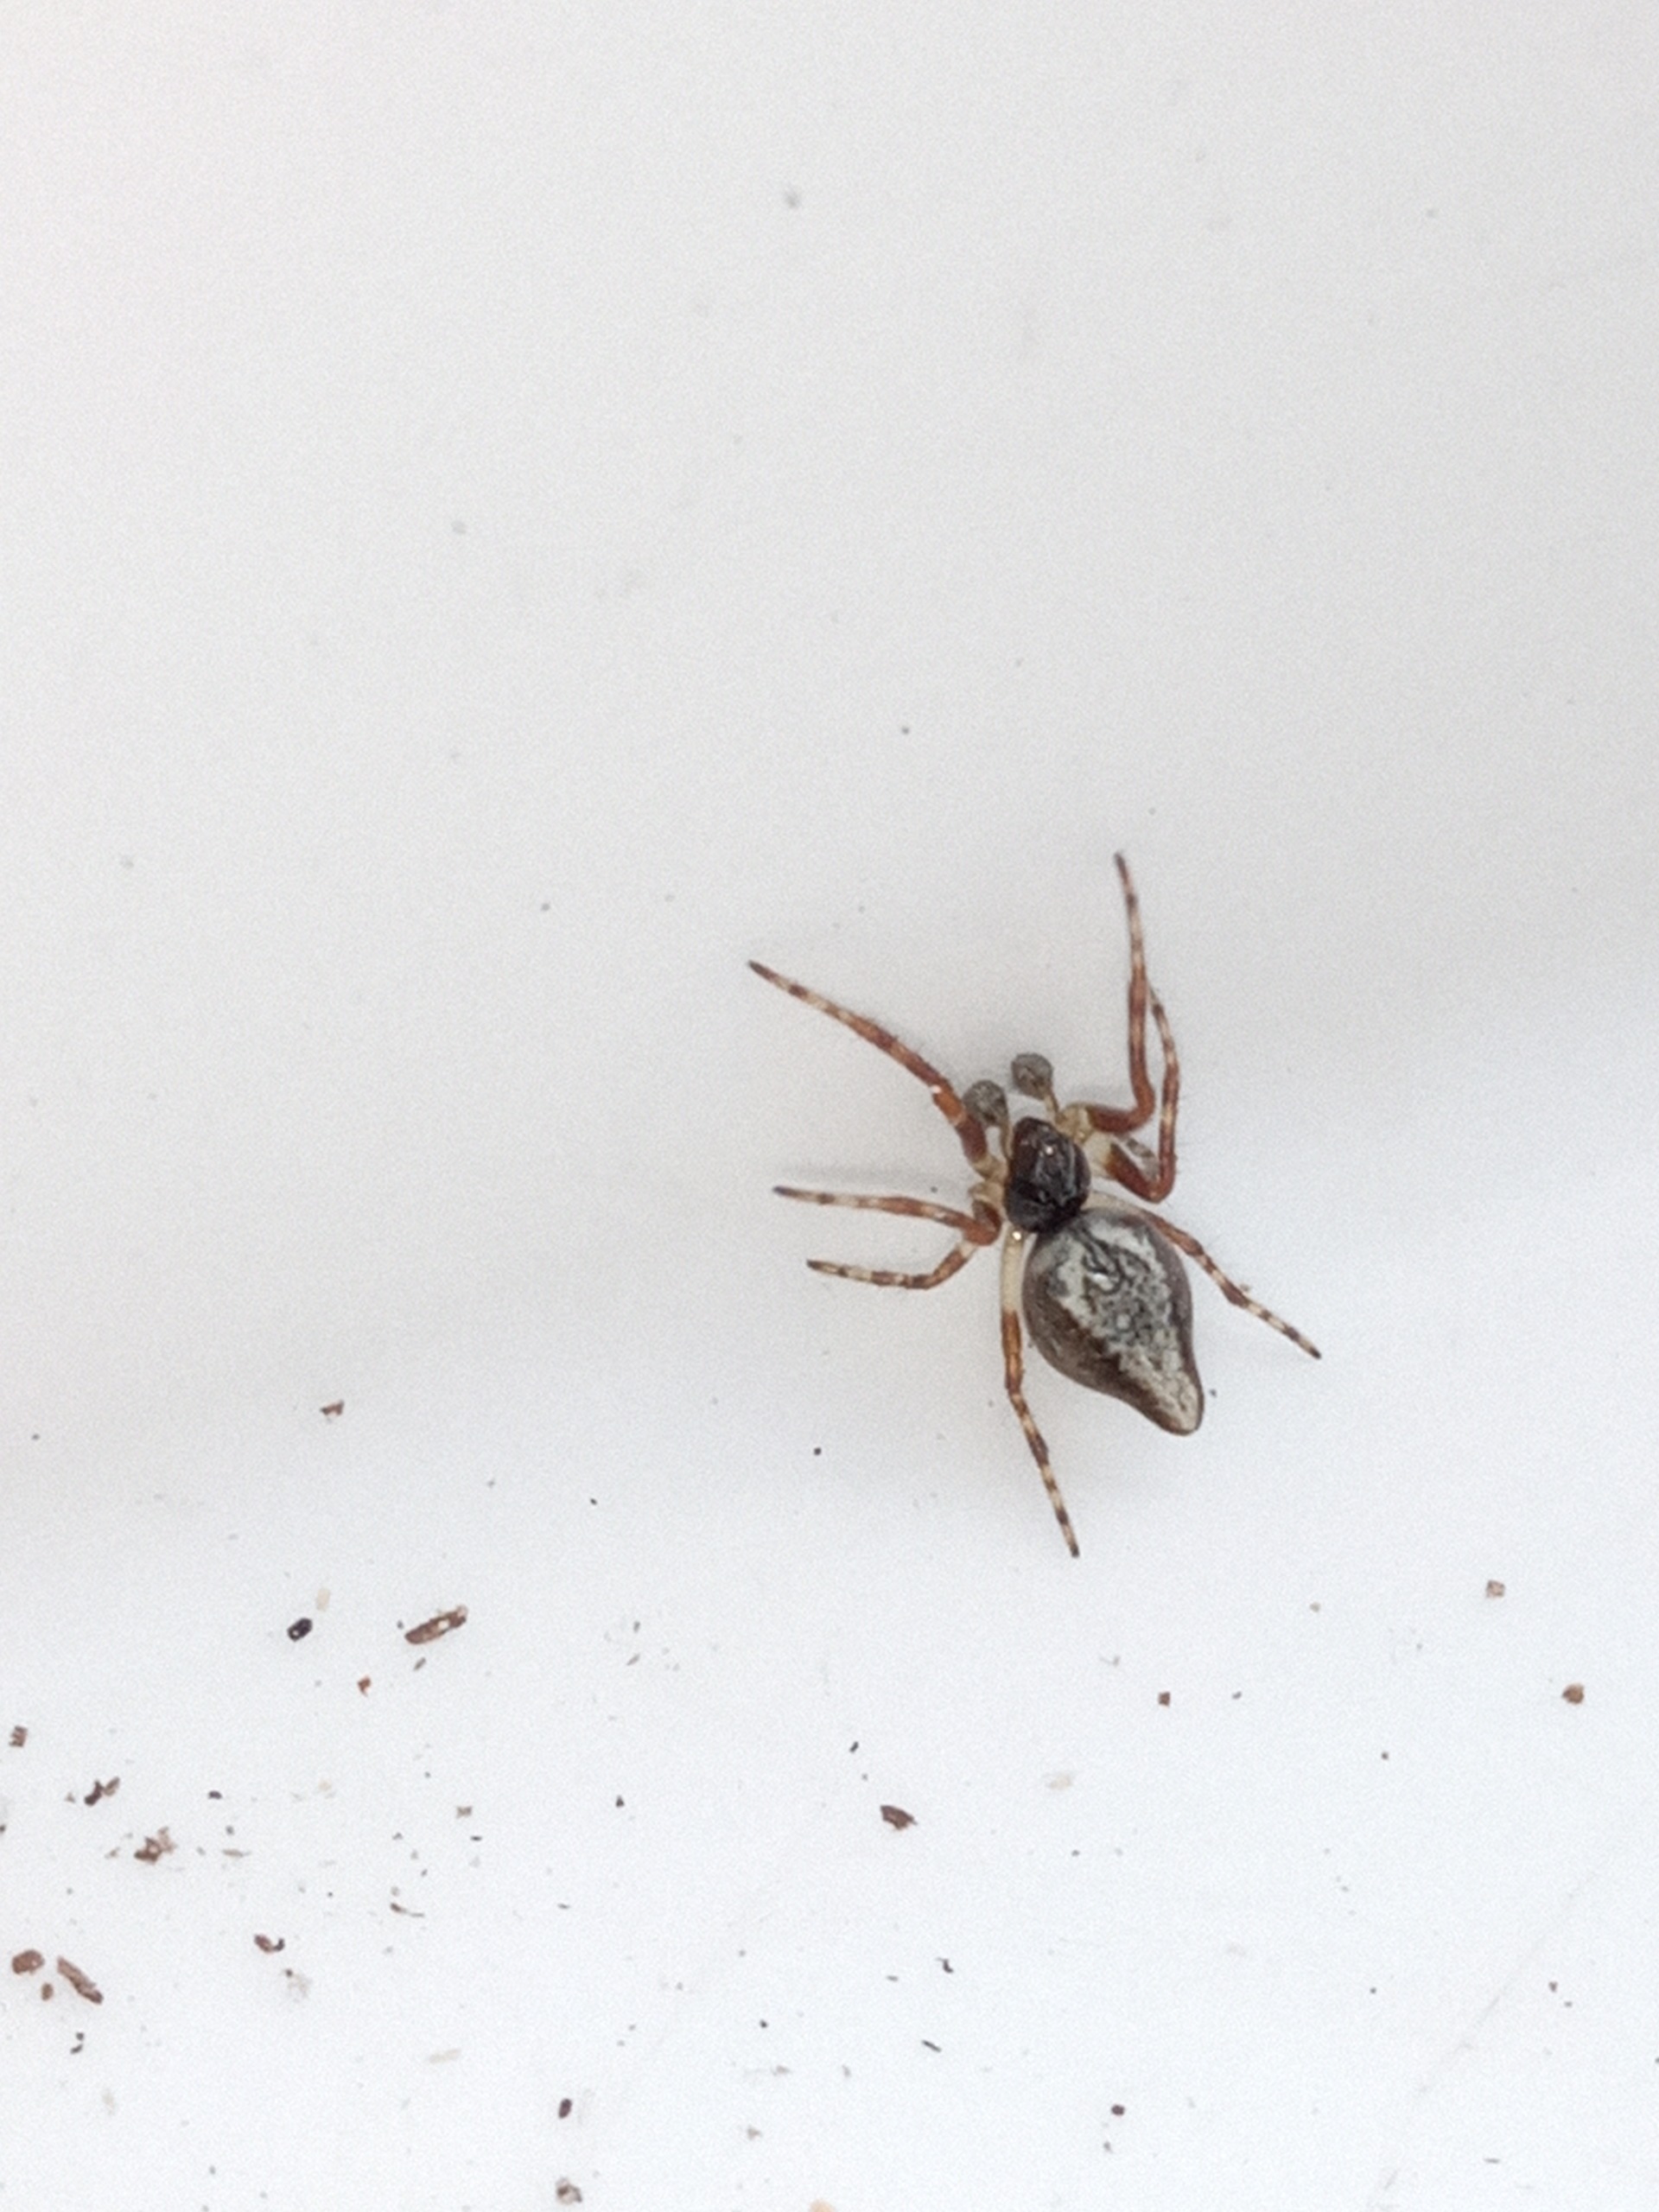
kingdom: Animalia
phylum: Arthropoda
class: Arachnida
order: Araneae
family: Araneidae
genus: Cyclosa
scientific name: Cyclosa conica
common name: Keglerumpe
